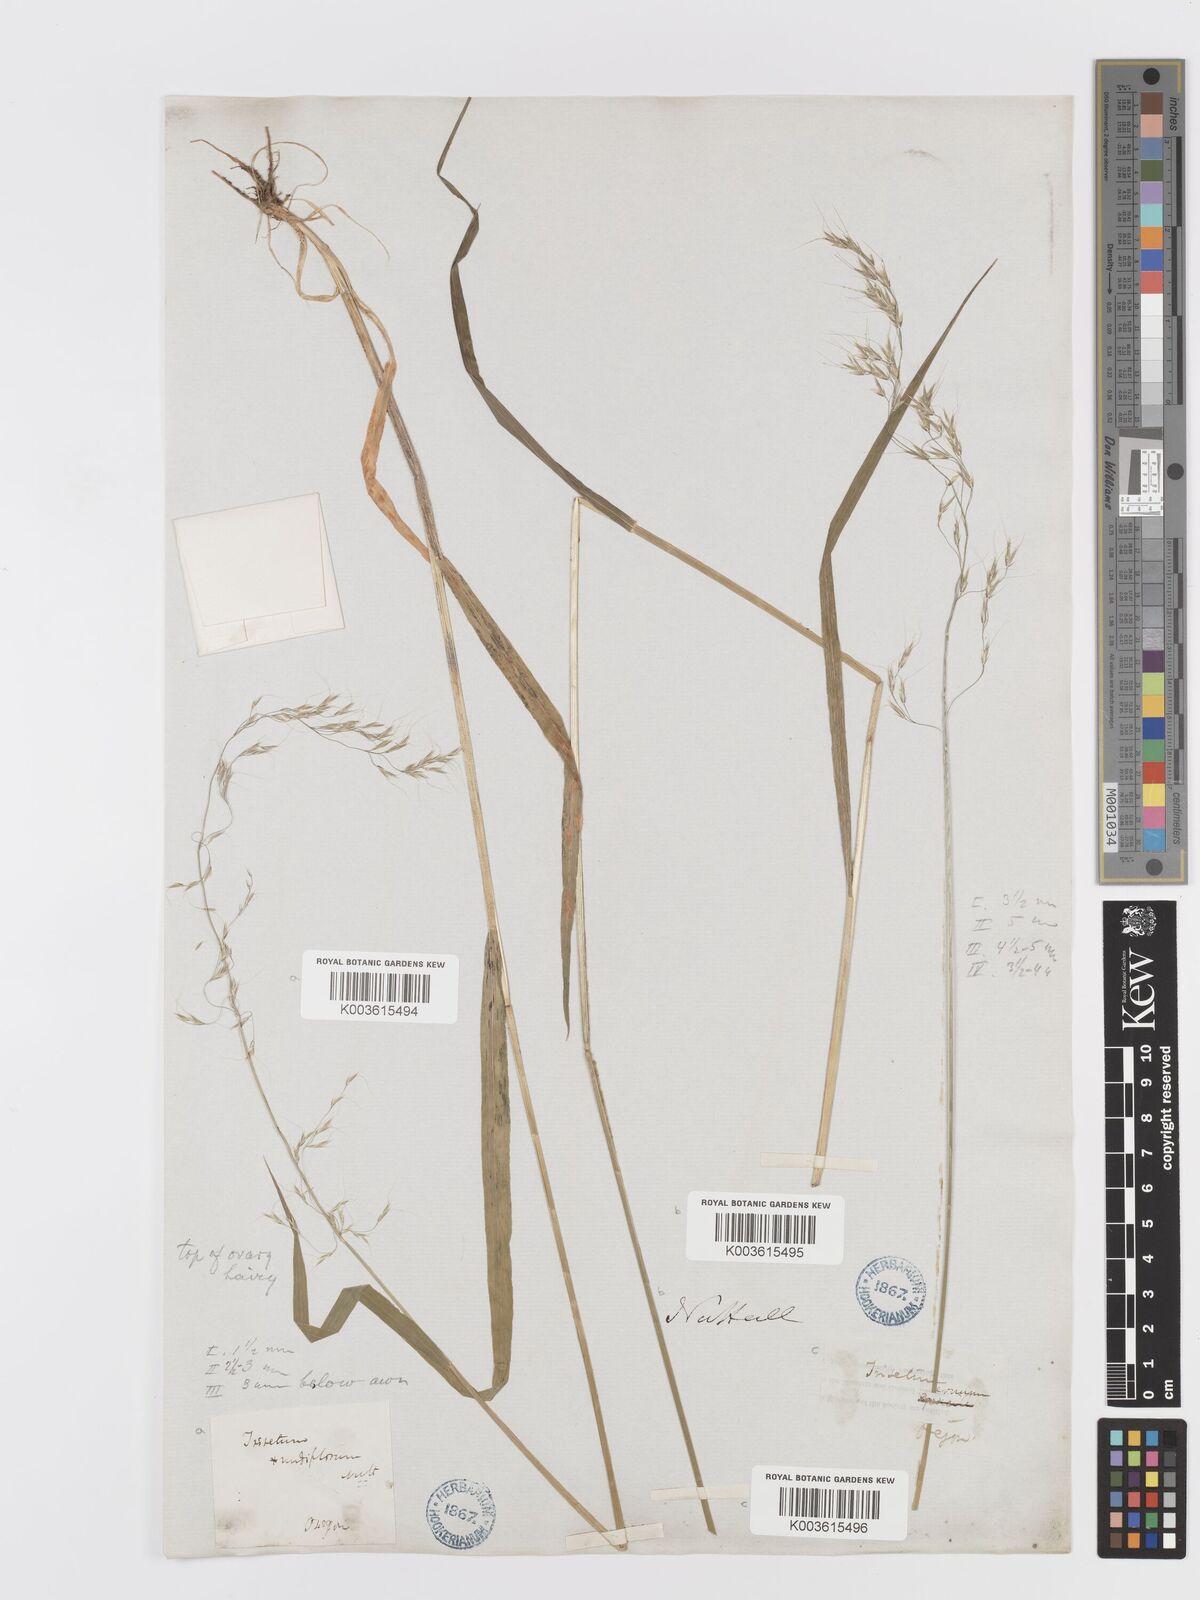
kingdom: Plantae
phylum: Tracheophyta
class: Liliopsida
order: Poales
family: Poaceae
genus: Graphephorum
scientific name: Graphephorum cernuum
